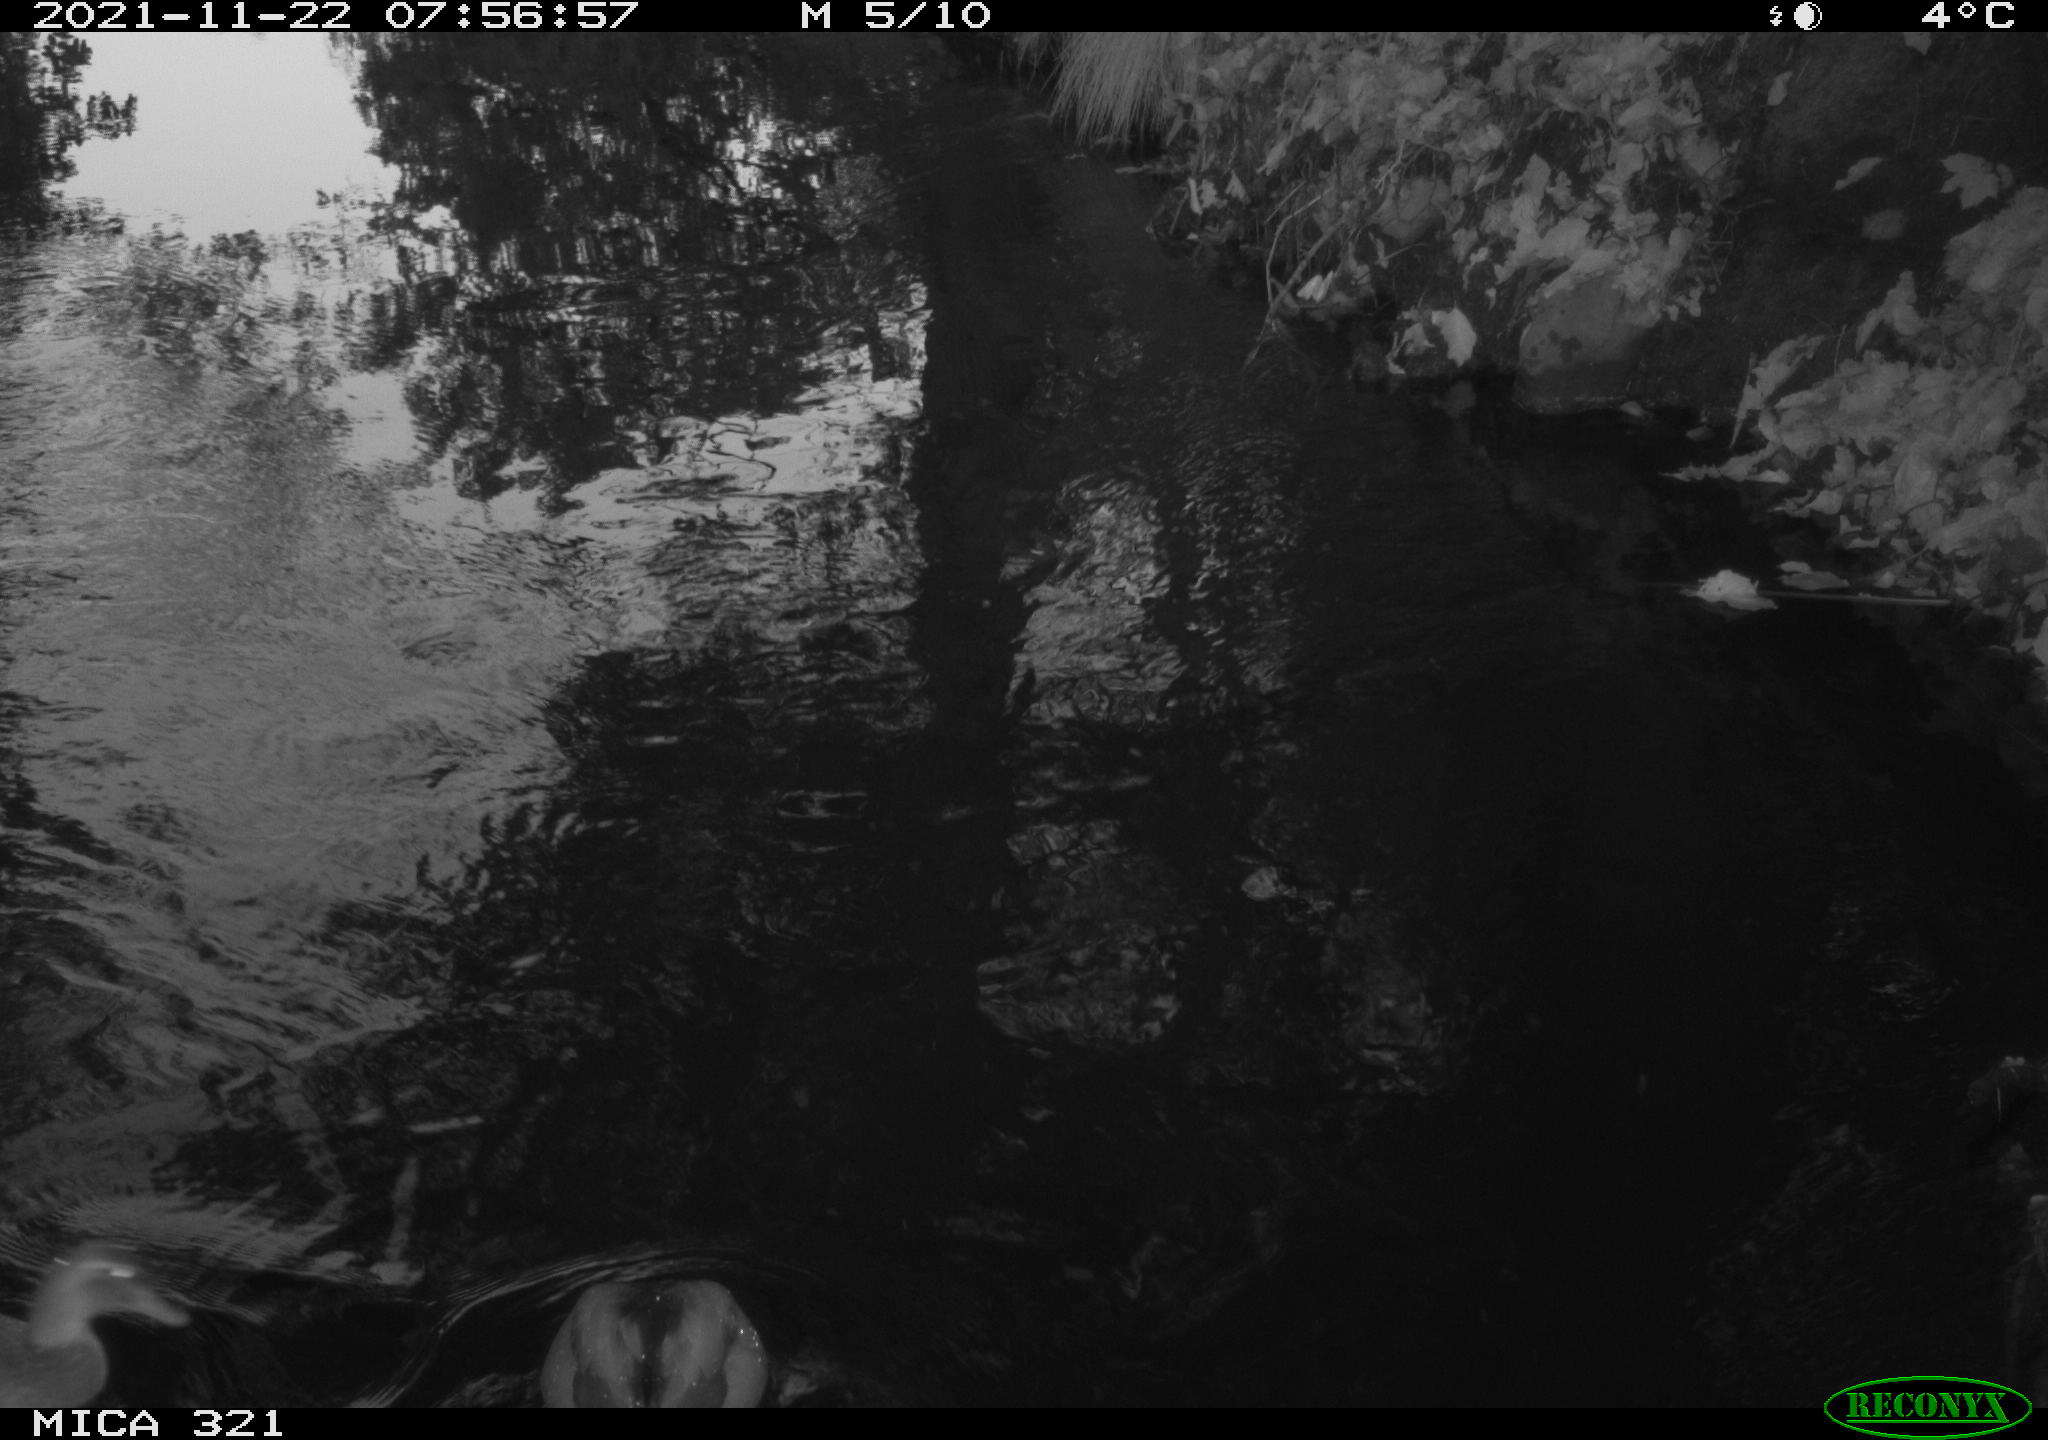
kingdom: Animalia
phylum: Chordata
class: Aves
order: Gruiformes
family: Rallidae
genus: Fulica
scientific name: Fulica atra
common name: Eurasian coot
